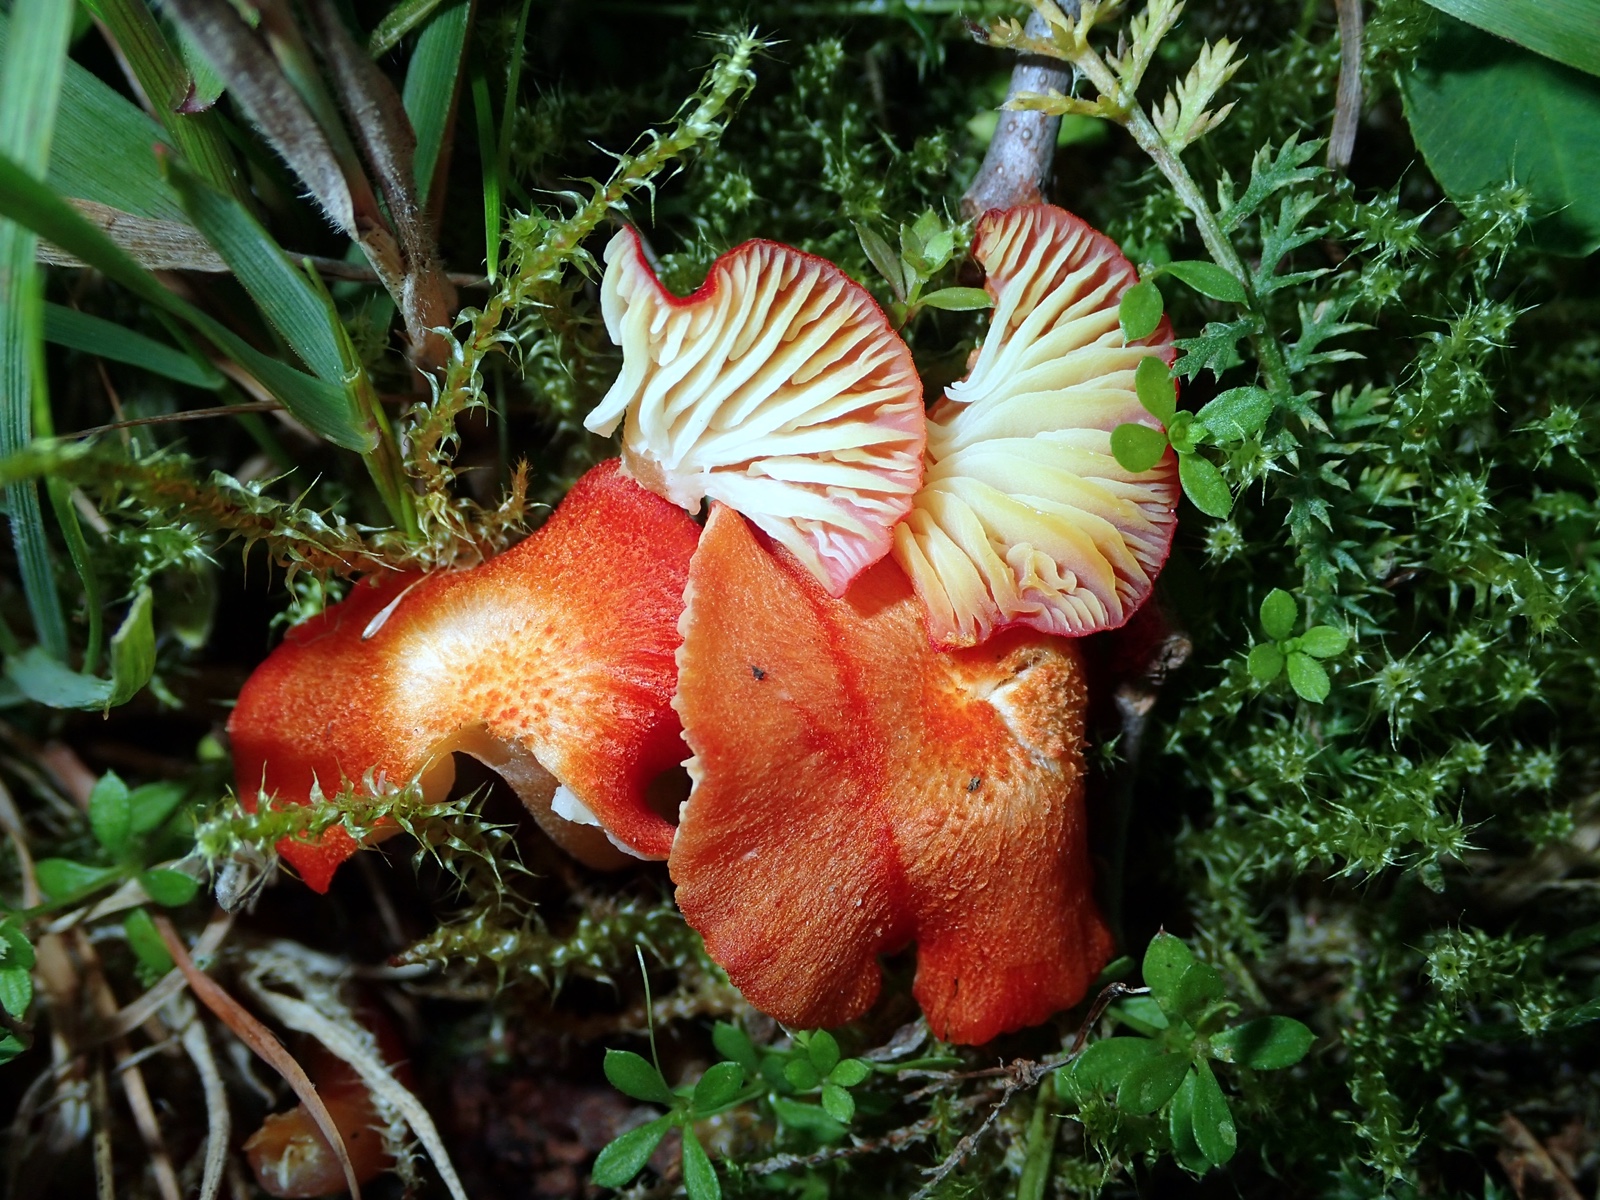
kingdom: Fungi
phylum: Basidiomycota
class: Agaricomycetes
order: Agaricales
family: Hygrophoraceae
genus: Hygrocybe
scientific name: Hygrocybe helobia
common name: hvidløgs-vokshat
